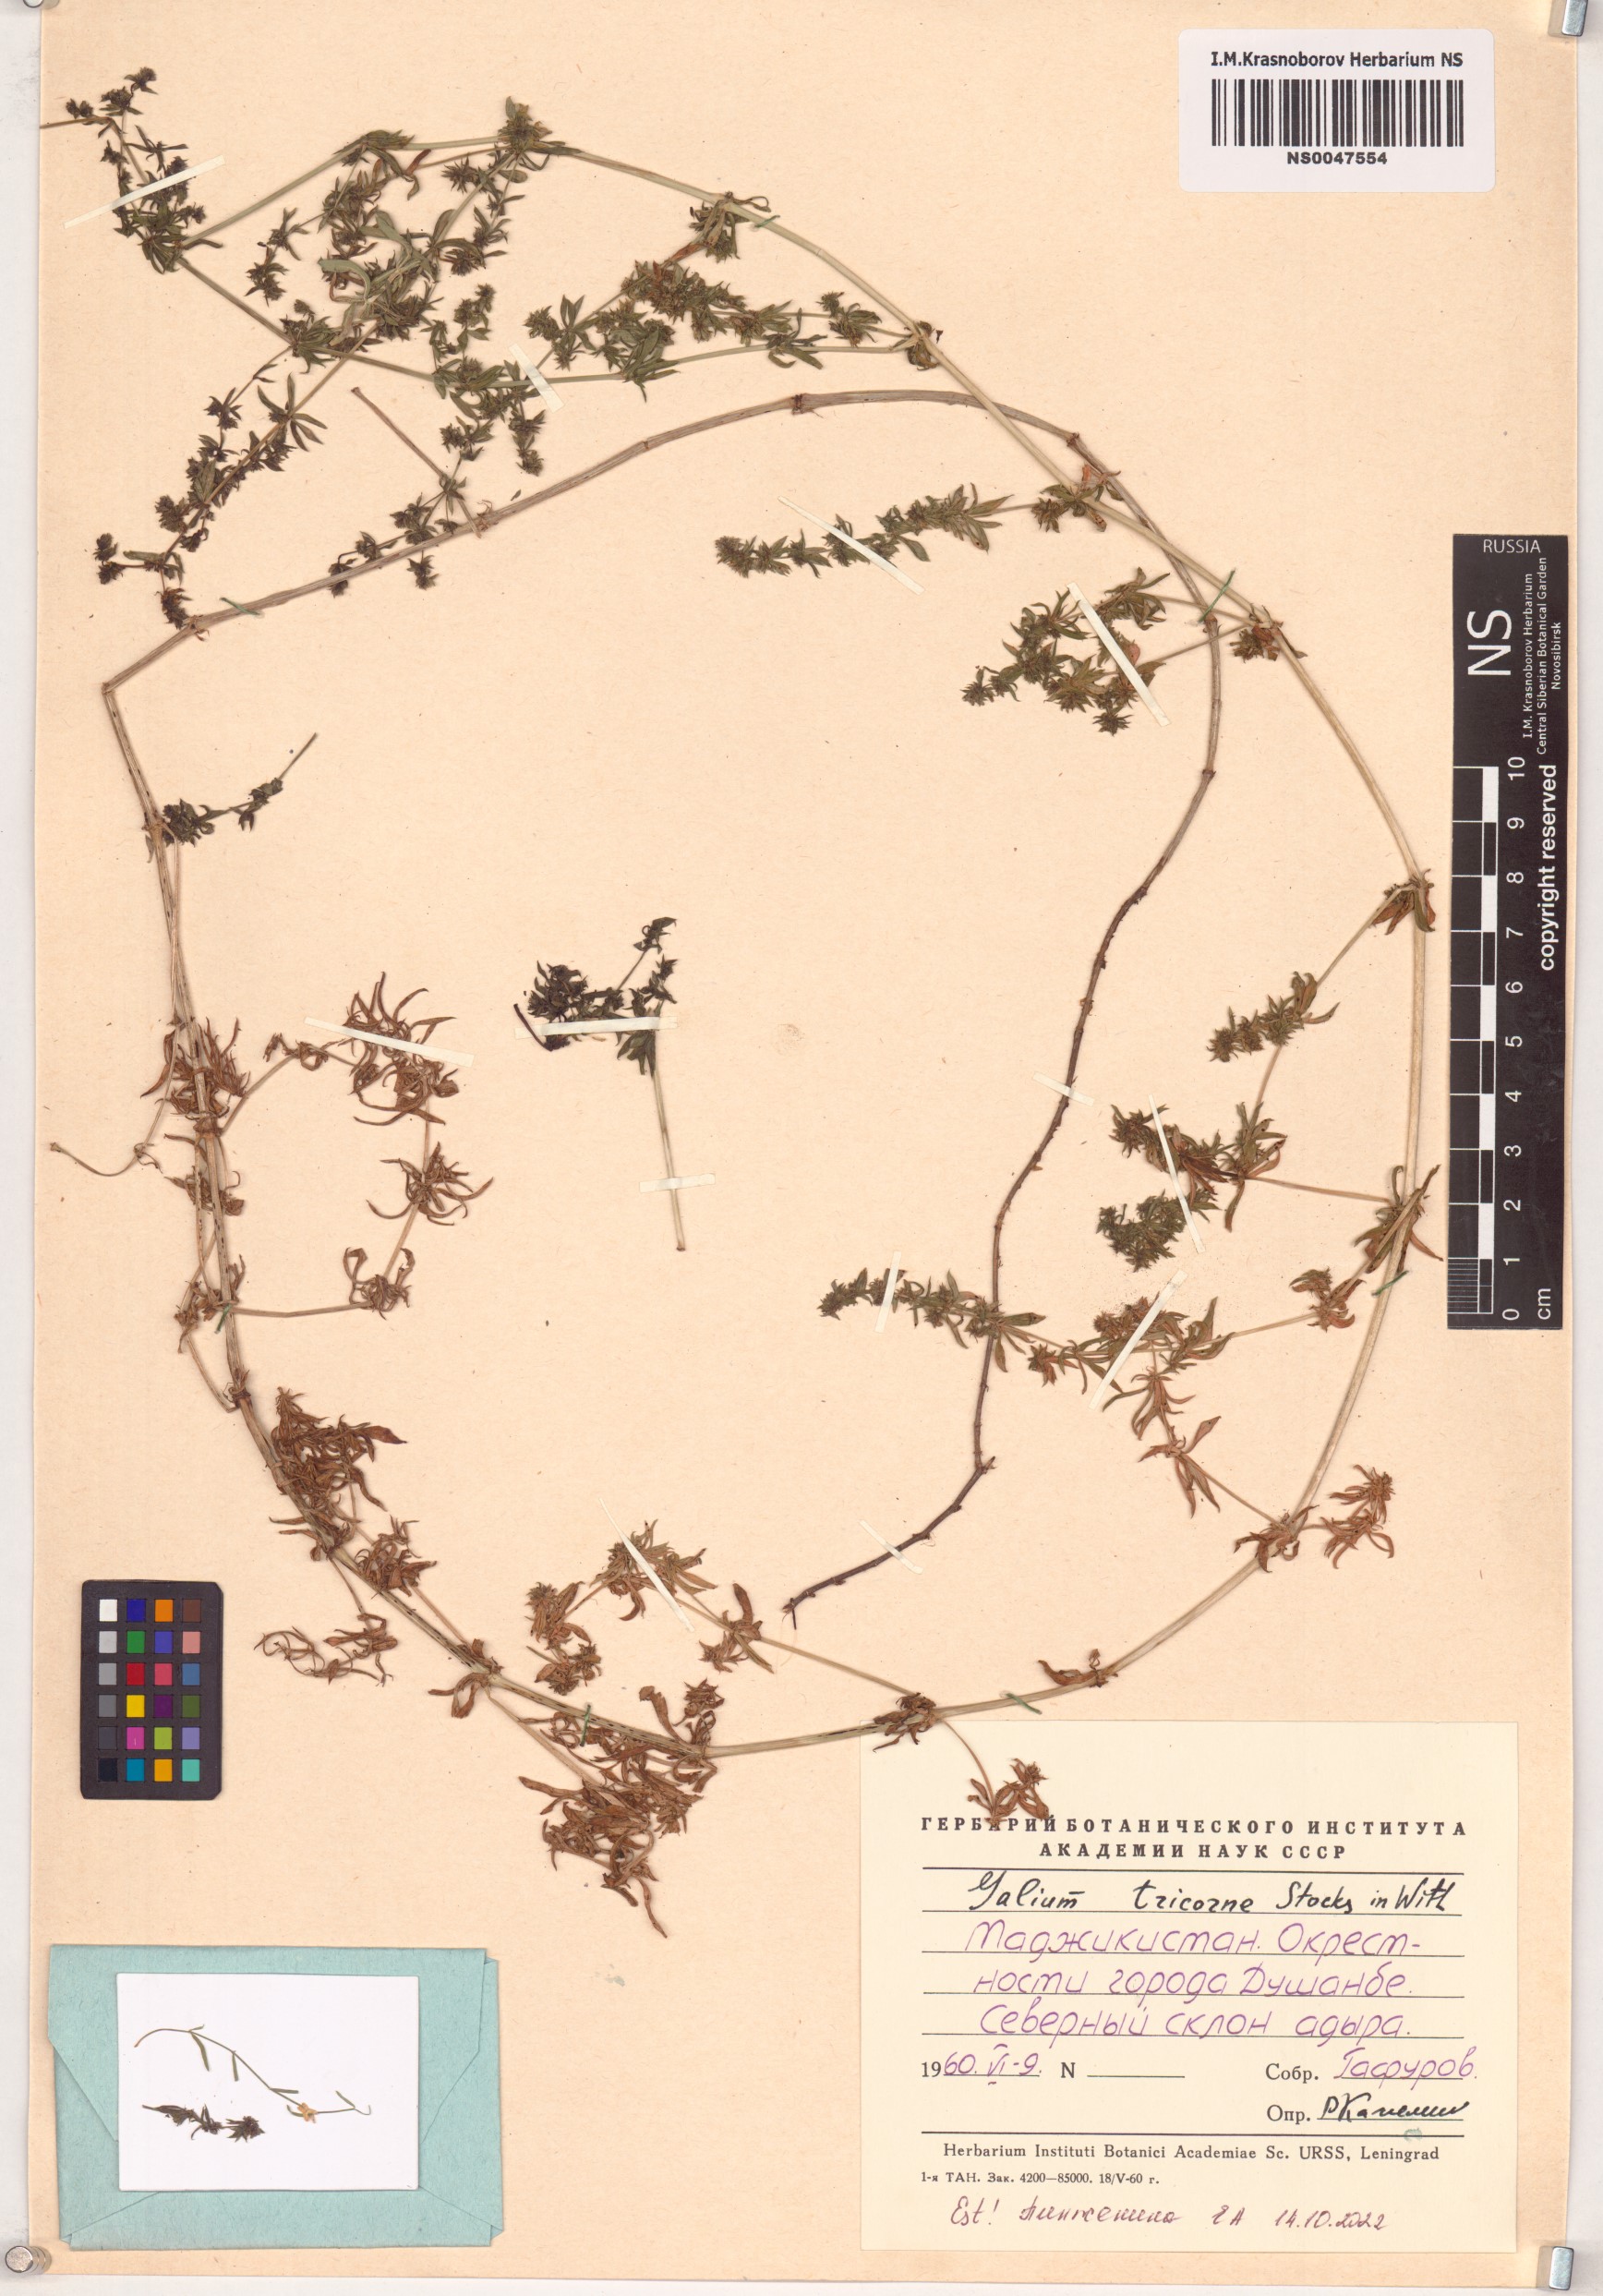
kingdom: Plantae
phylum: Tracheophyta
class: Magnoliopsida
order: Gentianales
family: Rubiaceae
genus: Galium
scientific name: Galium verrucosum
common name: Warty bedstraw
